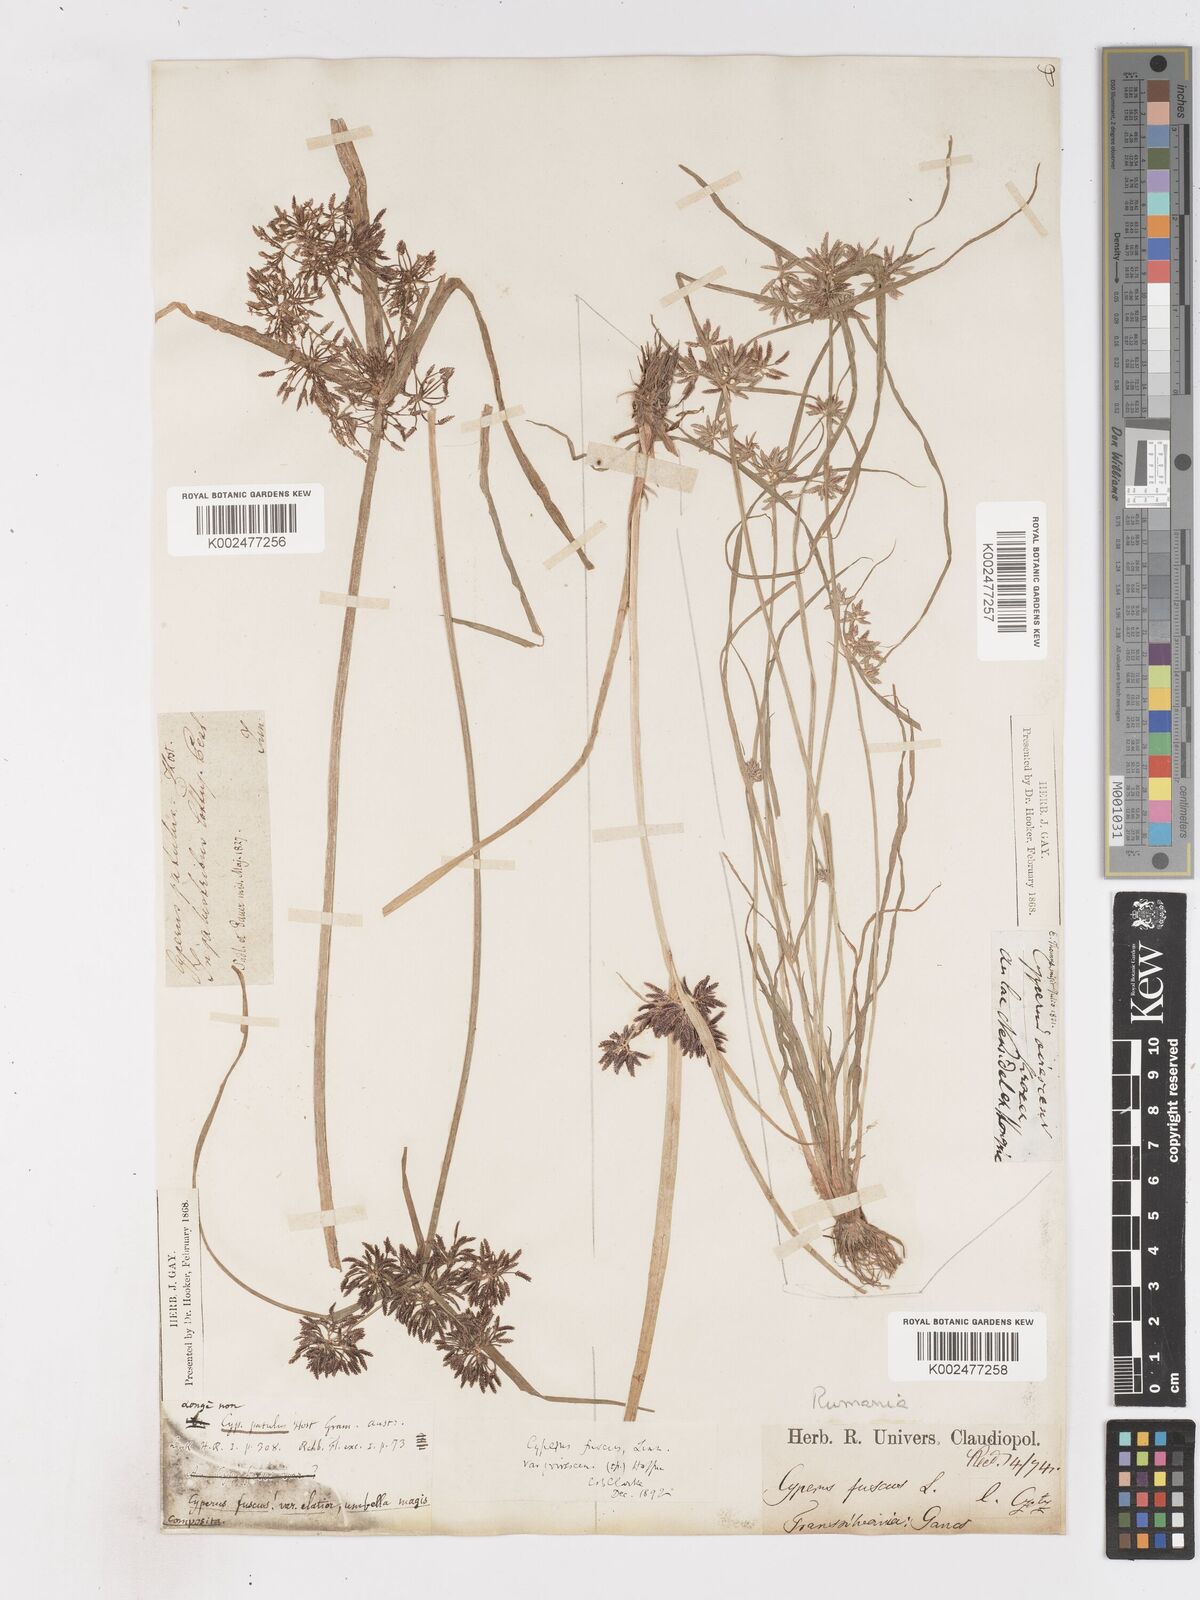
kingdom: Plantae
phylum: Tracheophyta
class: Liliopsida
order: Poales
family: Cyperaceae
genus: Cyperus
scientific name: Cyperus fuscus
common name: Brown galingale
